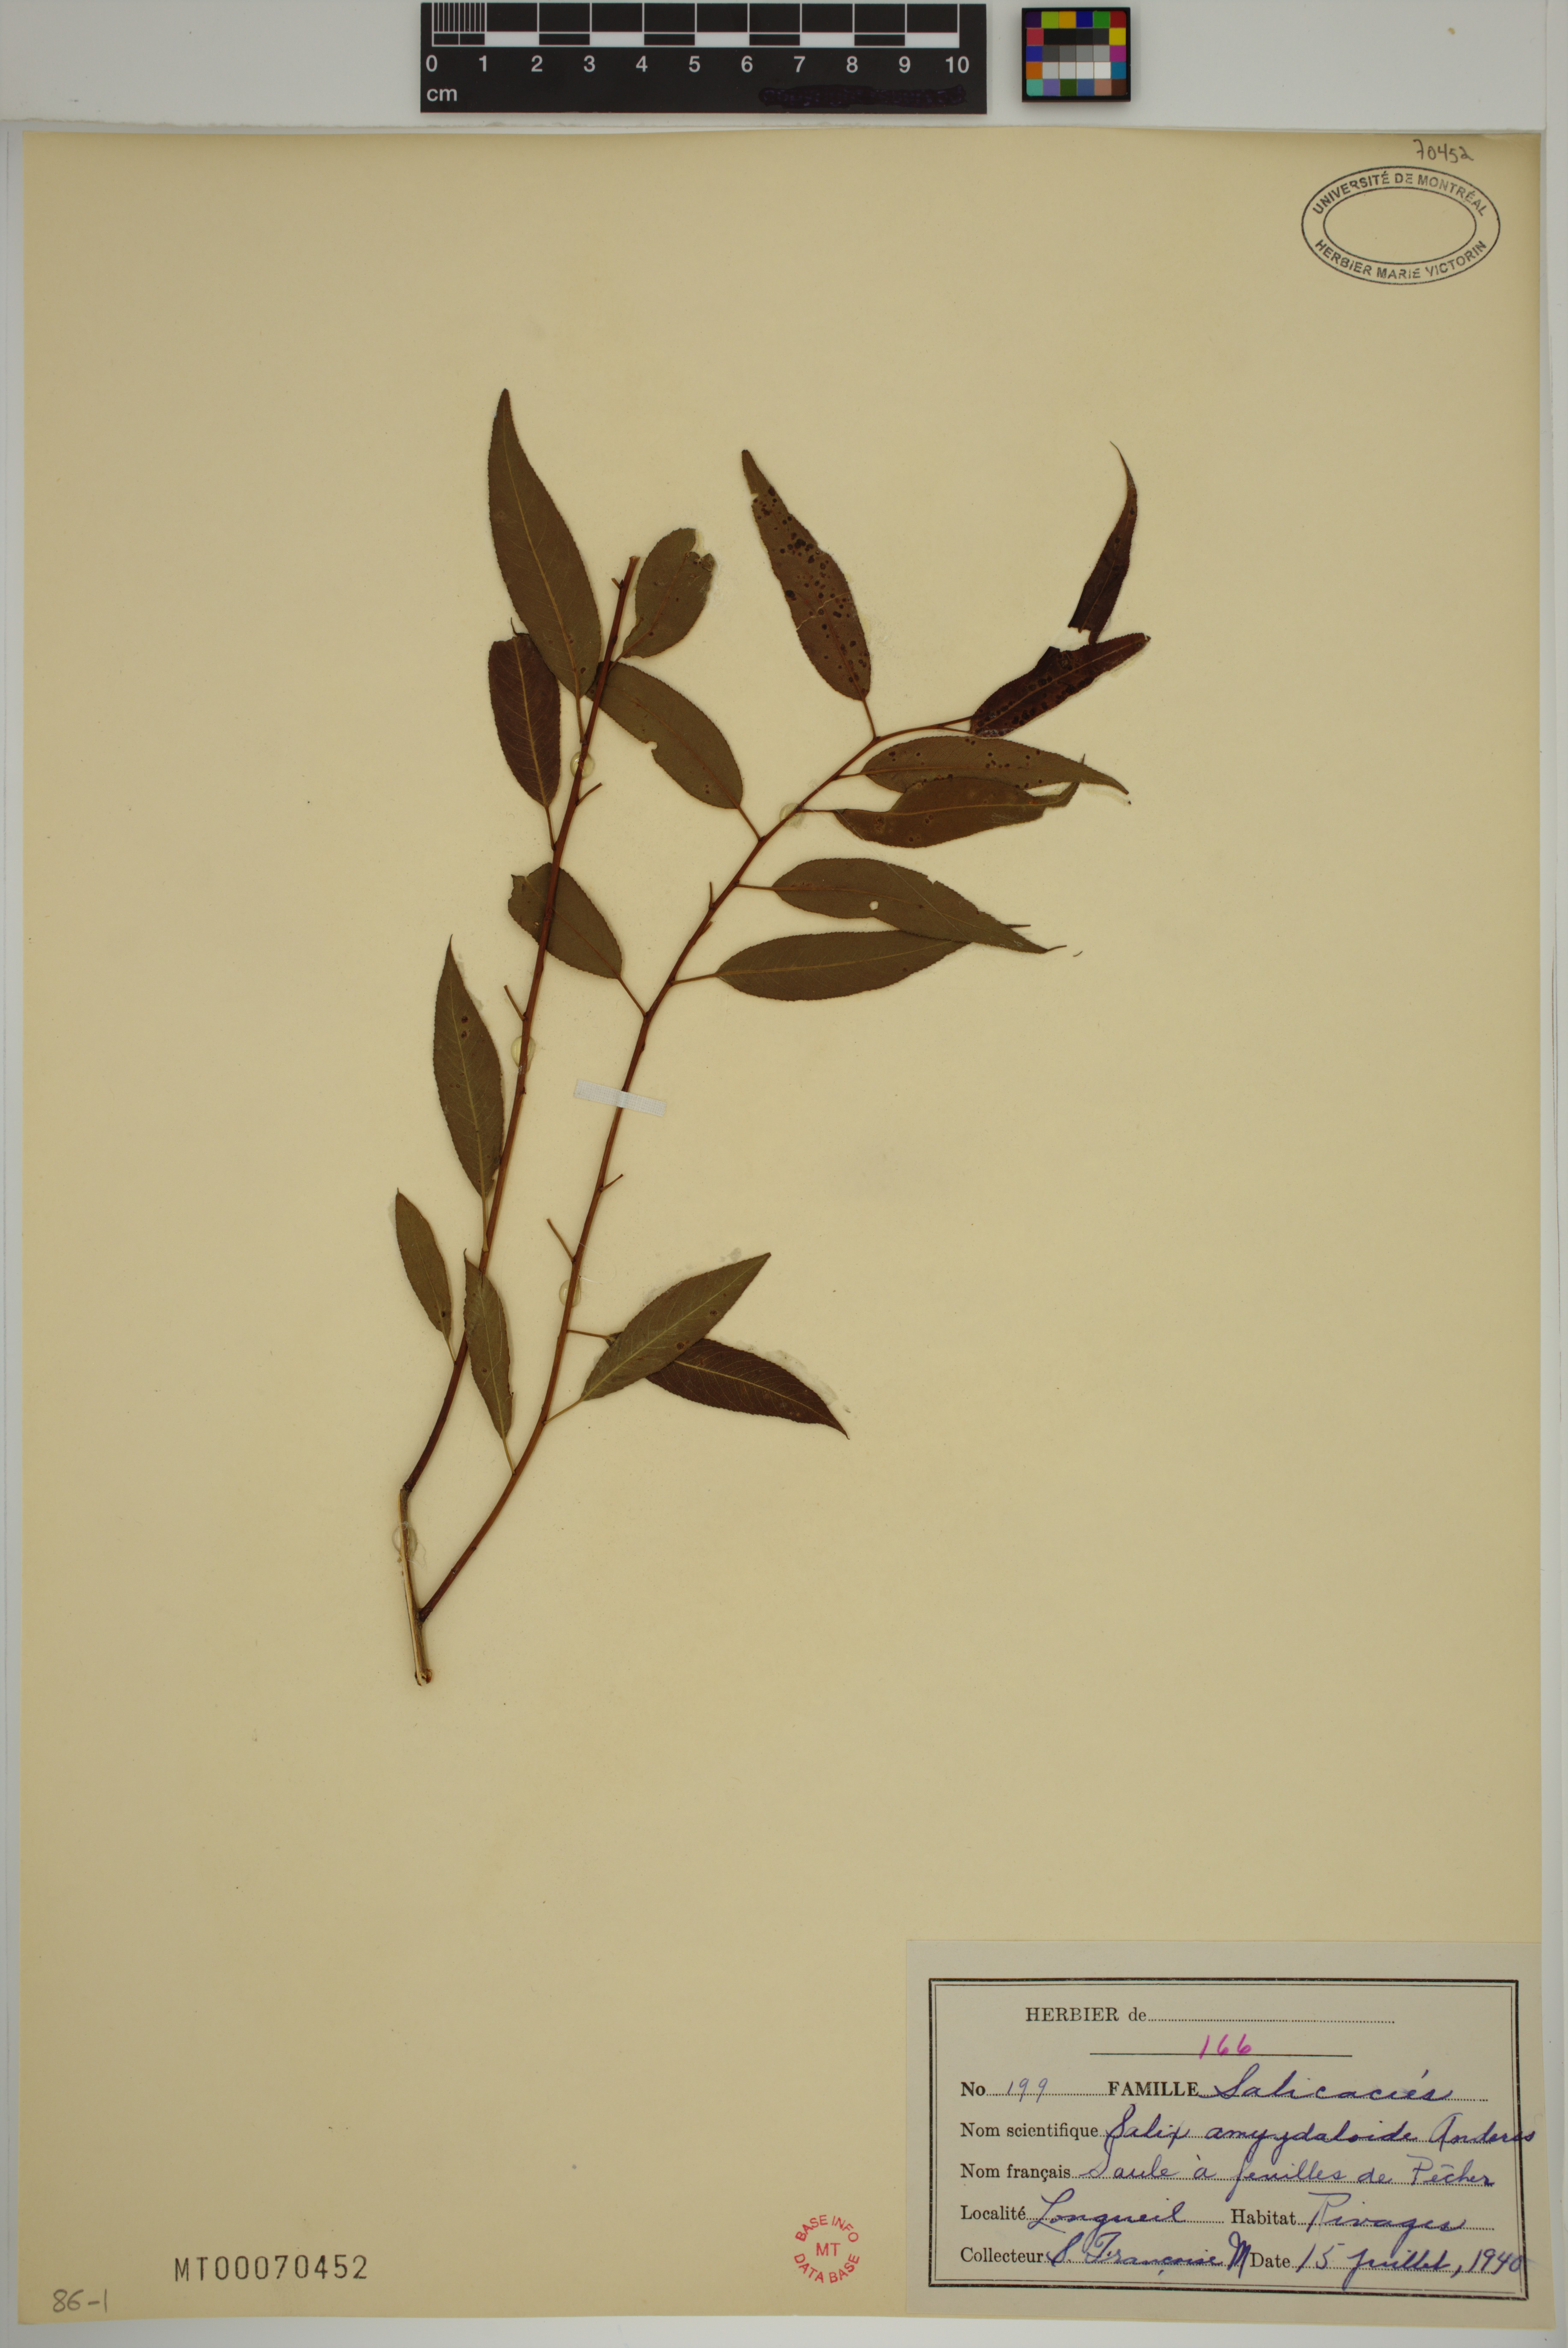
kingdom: Plantae
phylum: Tracheophyta
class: Magnoliopsida
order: Malpighiales
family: Salicaceae
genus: Salix
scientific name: Salix amygdaloides
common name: Peach leaf willow
